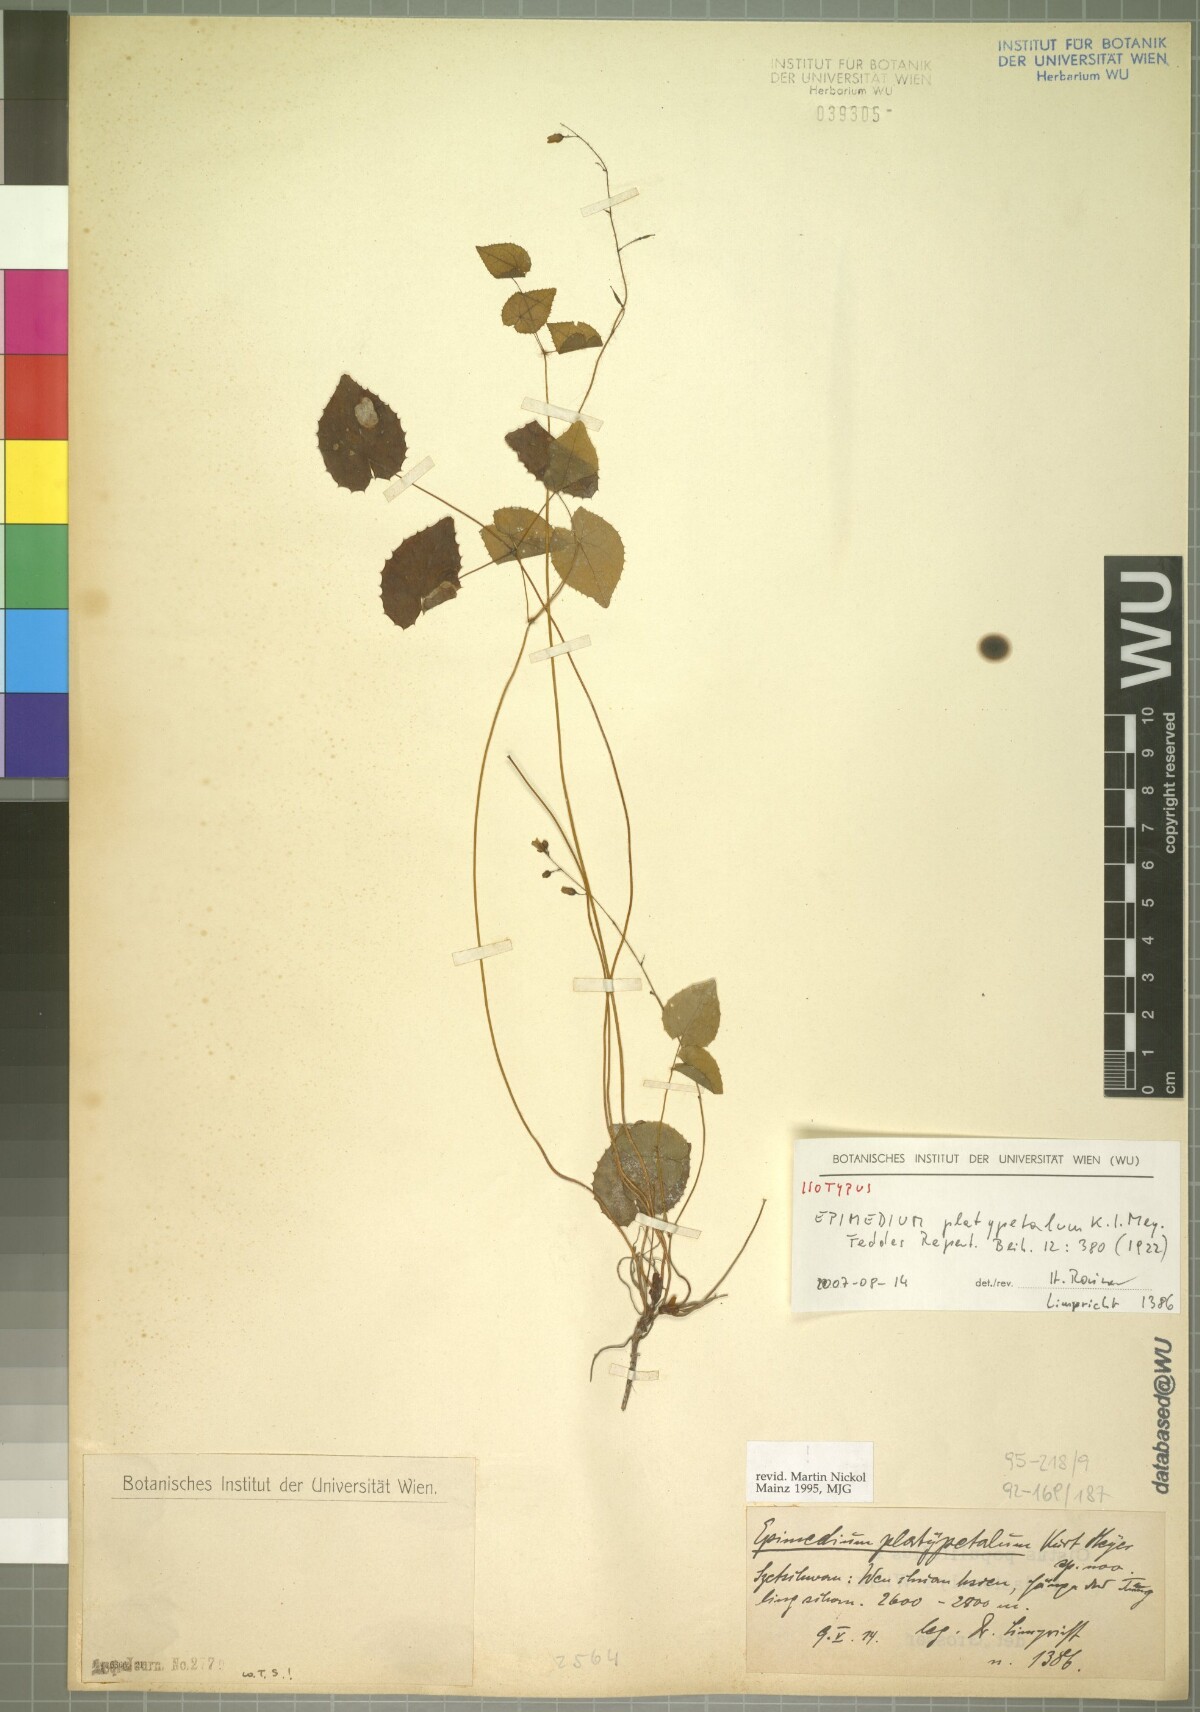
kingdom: Plantae
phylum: Tracheophyta
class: Magnoliopsida
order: Ranunculales
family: Berberidaceae
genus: Epimedium
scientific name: Epimedium platypetalum
